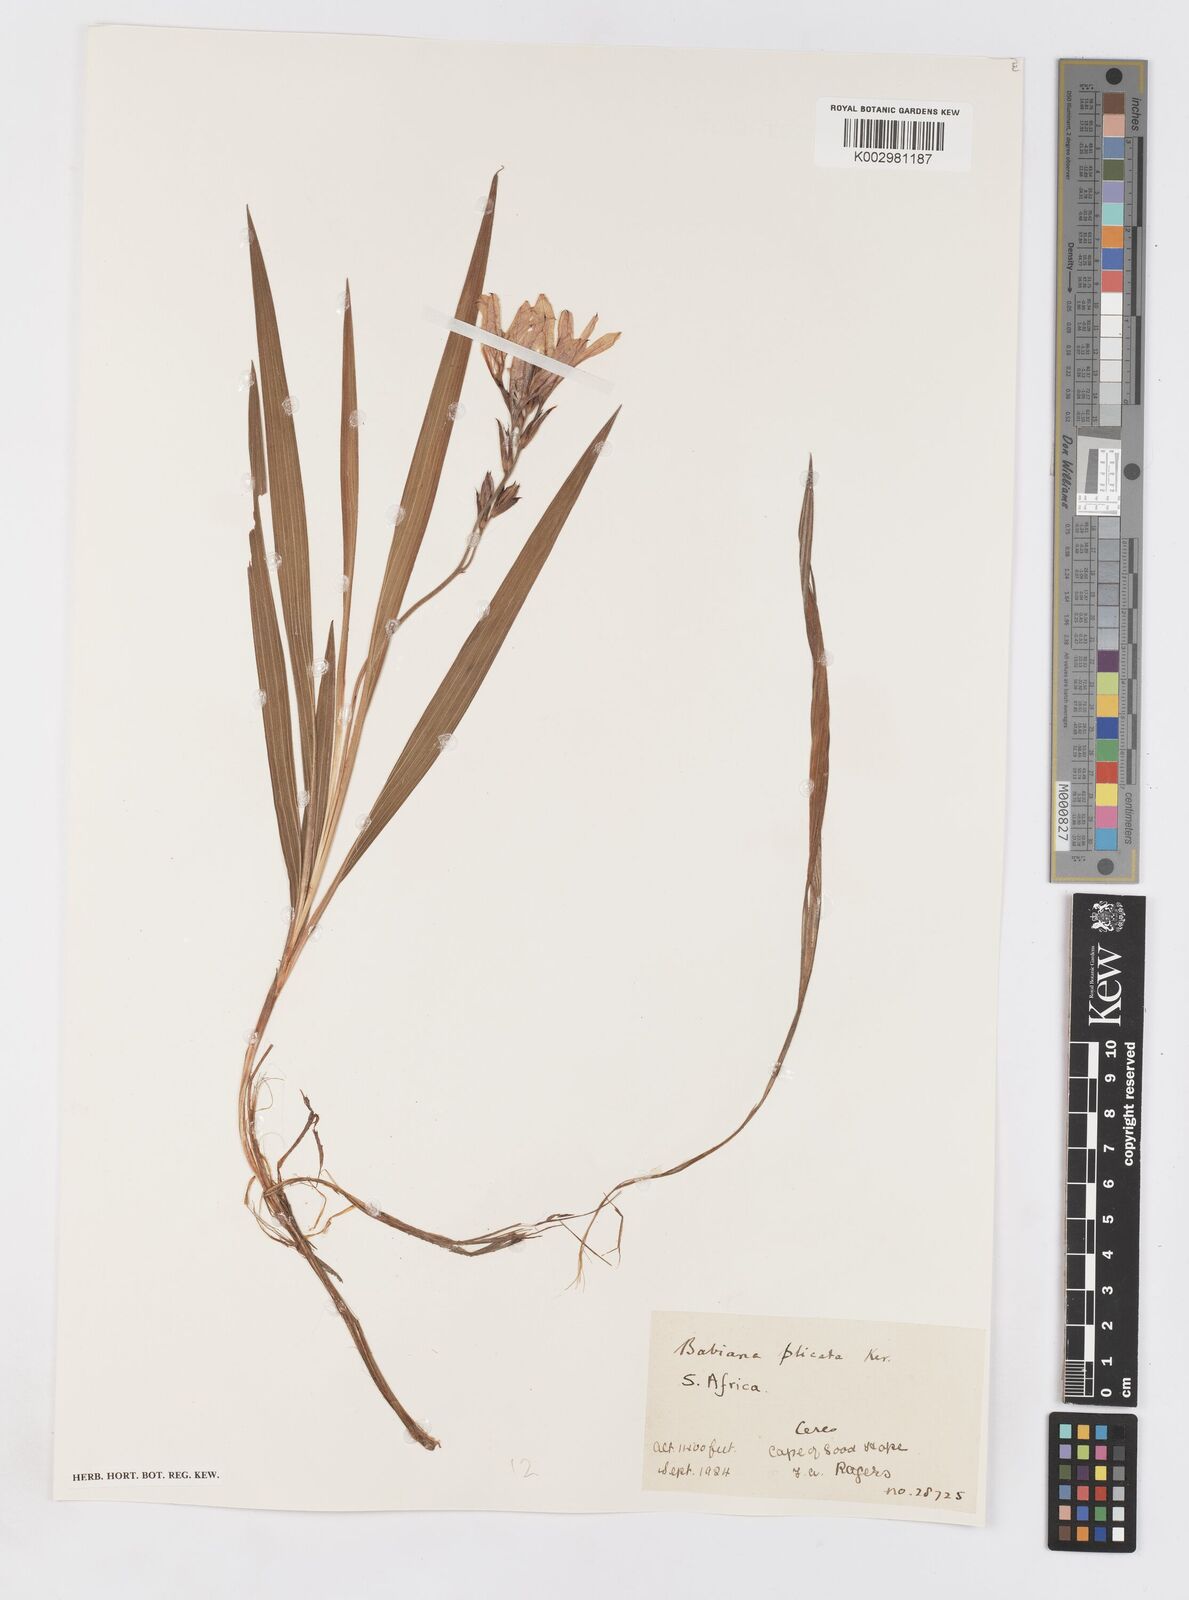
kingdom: Plantae
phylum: Tracheophyta
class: Liliopsida
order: Asparagales
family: Iridaceae
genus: Babiana
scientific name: Babiana fragrans
